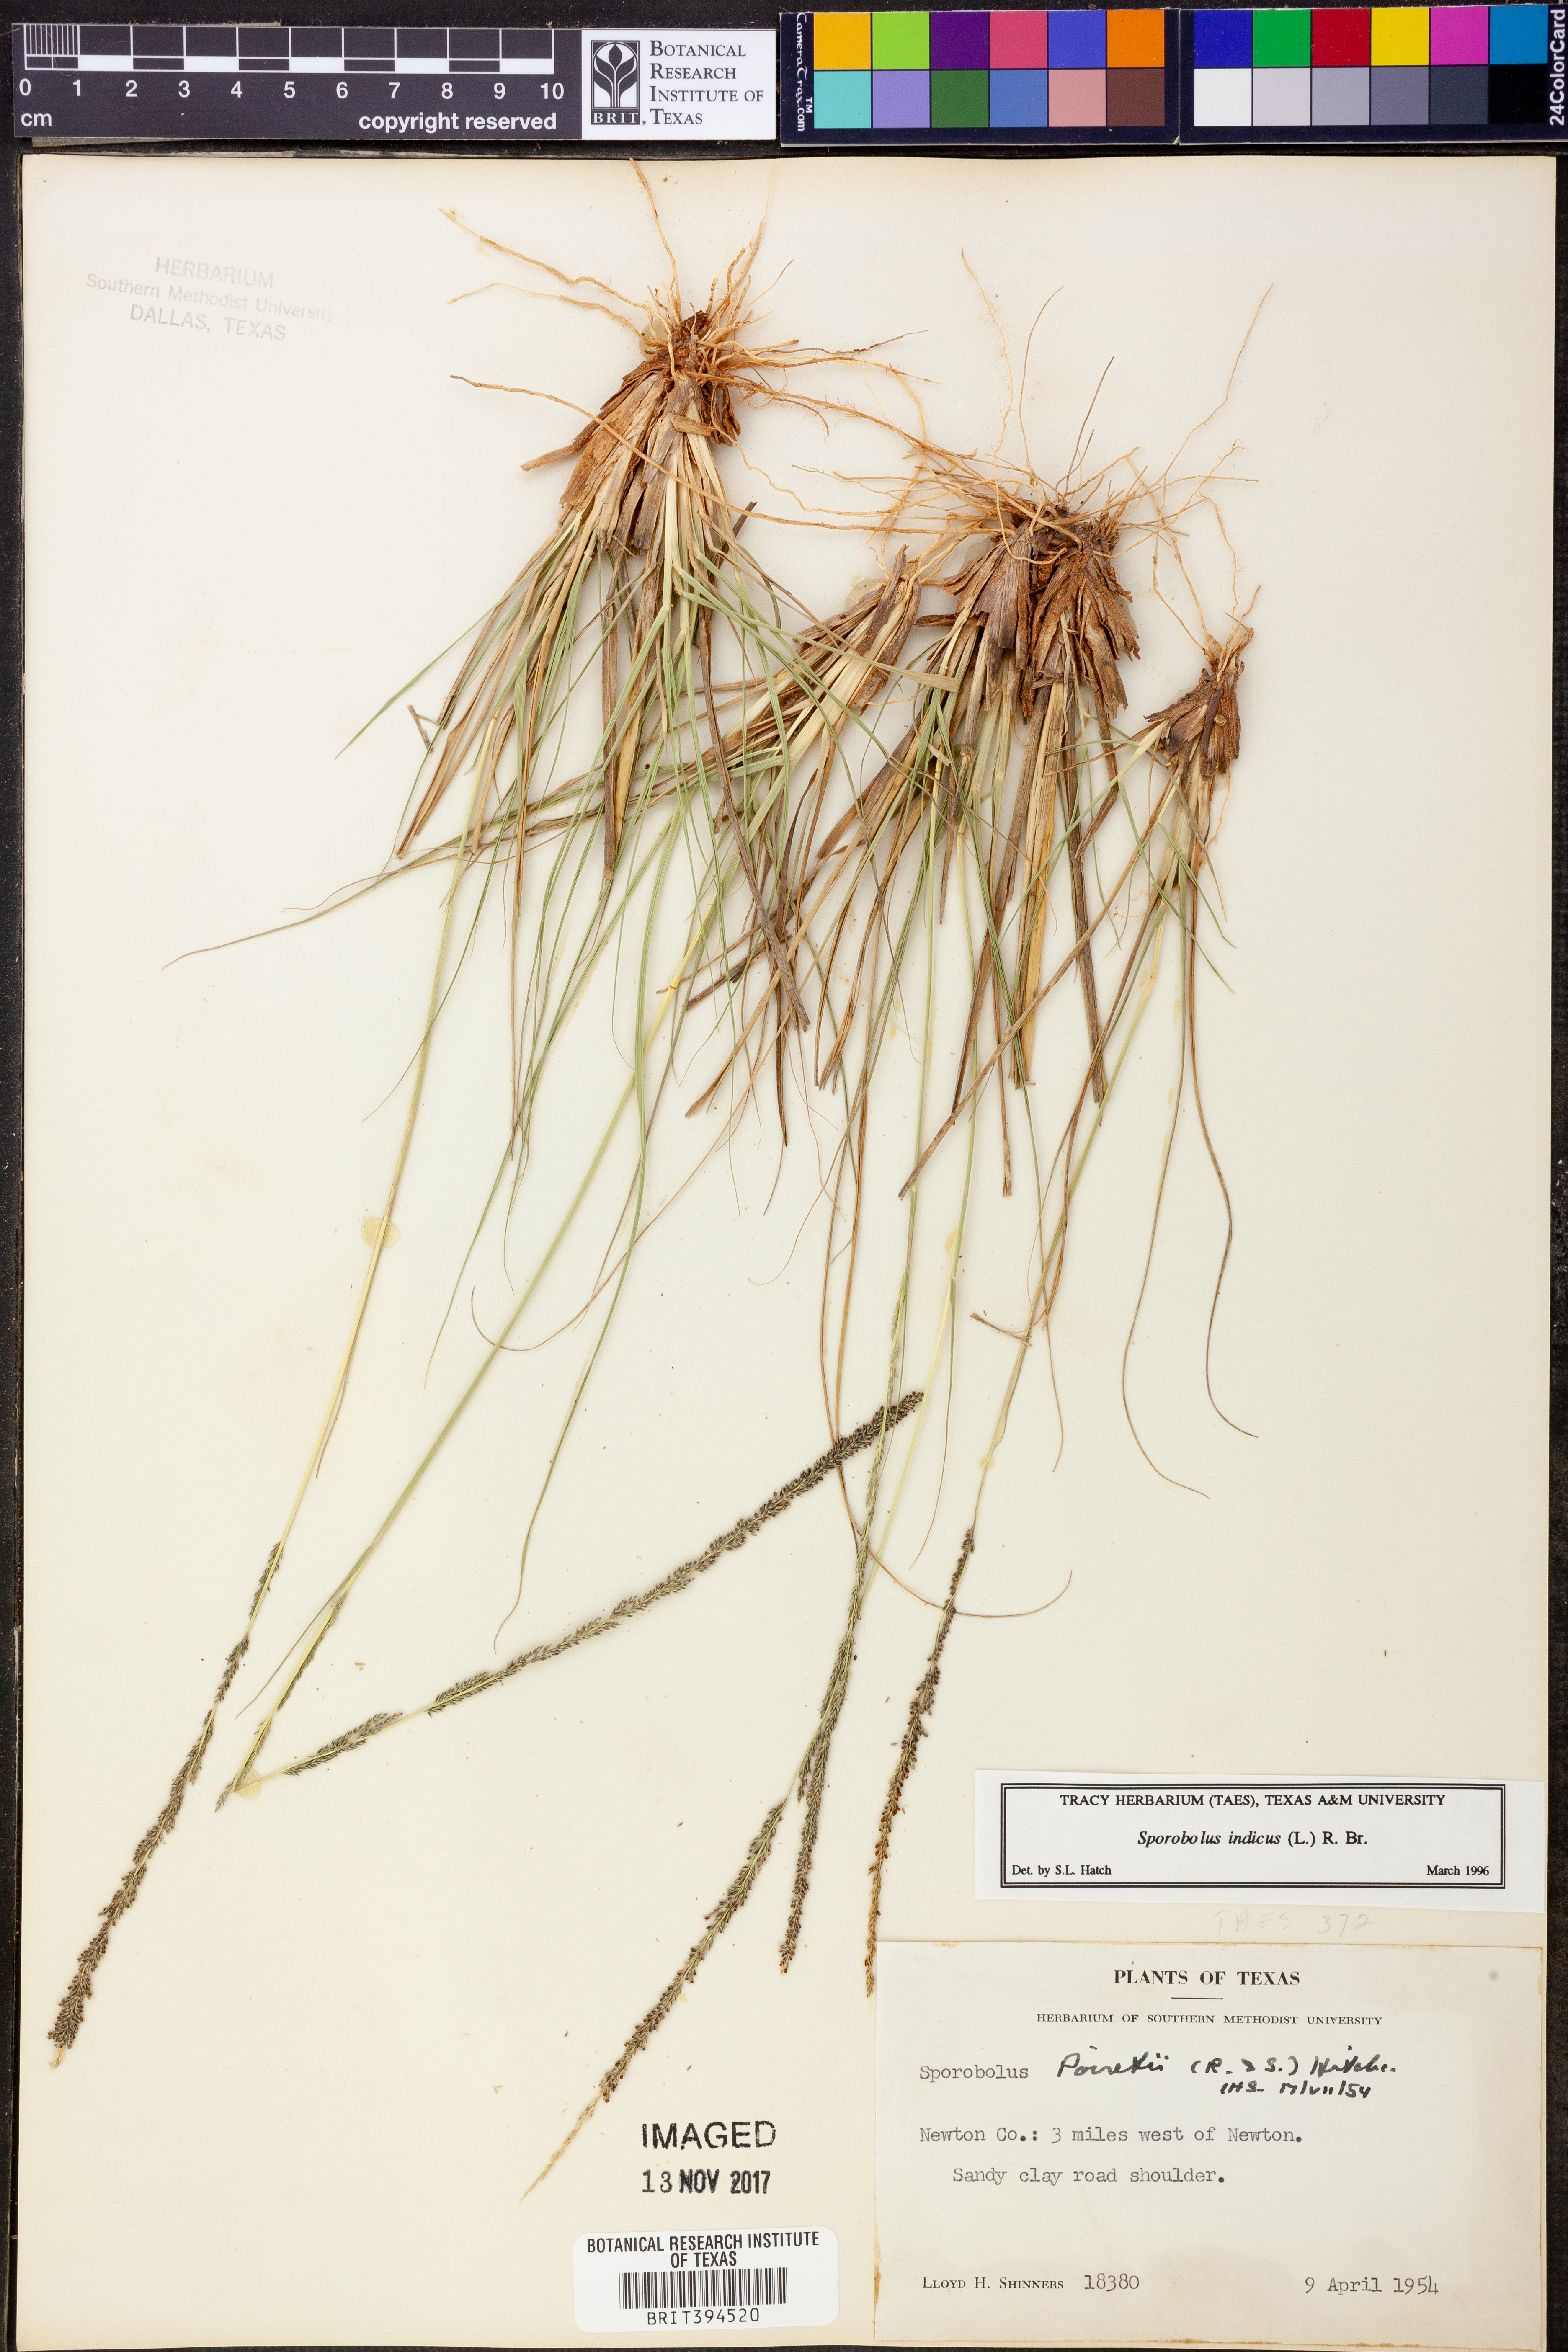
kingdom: Plantae
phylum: Tracheophyta
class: Liliopsida
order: Poales
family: Poaceae
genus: Sporobolus
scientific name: Sporobolus indicus
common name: Smut grass
